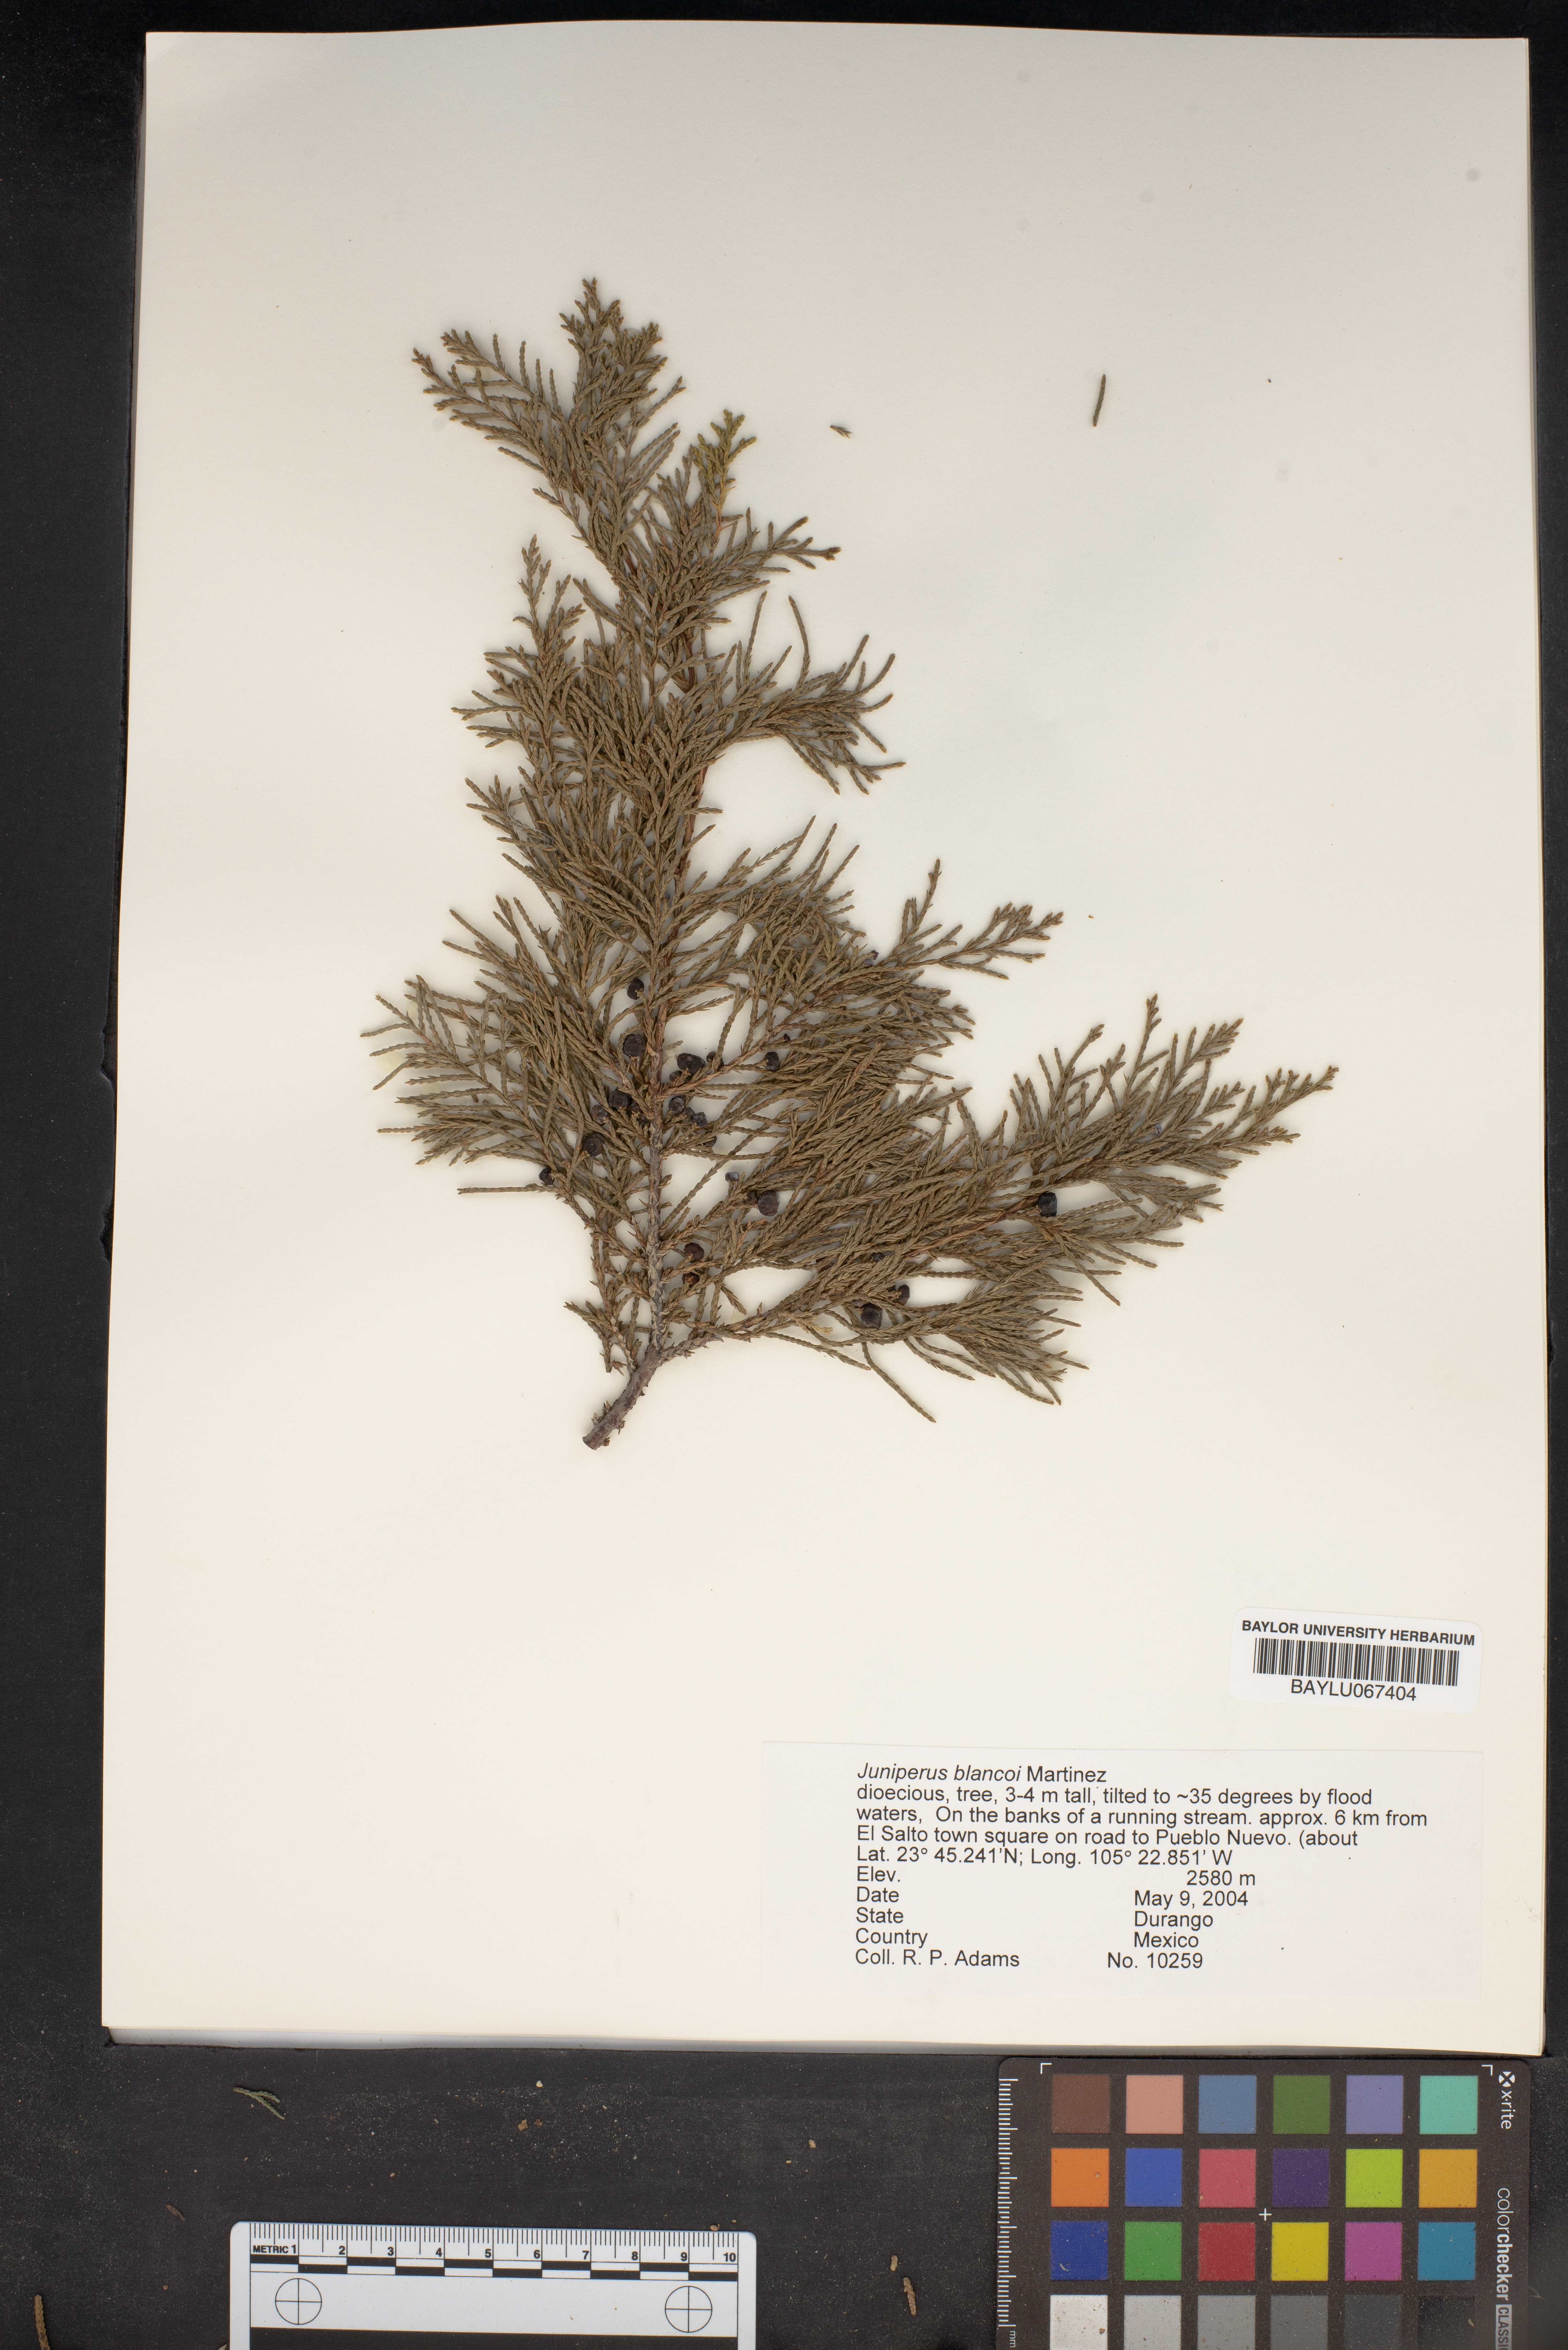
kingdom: Plantae
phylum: Tracheophyta
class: Pinopsida
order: Pinales
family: Cupressaceae
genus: Juniperus
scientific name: Juniperus blancoi
